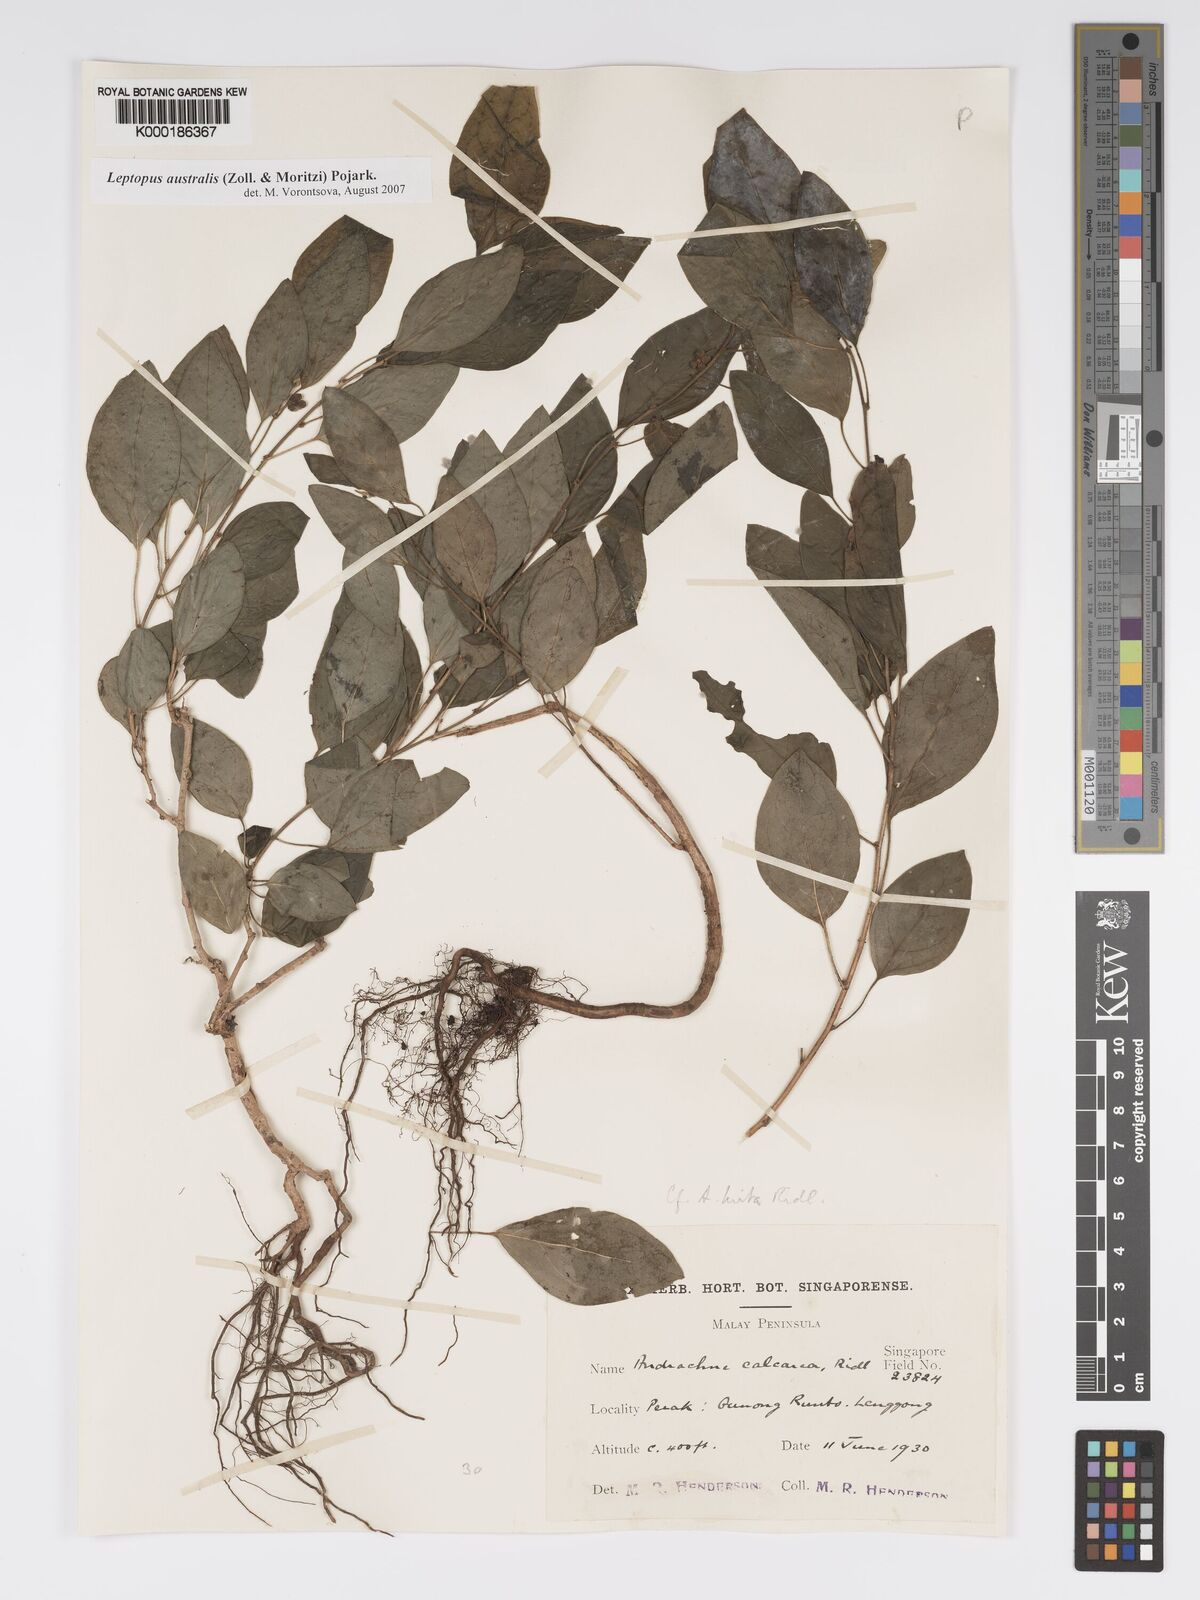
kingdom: Plantae
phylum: Tracheophyta
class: Magnoliopsida
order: Malpighiales
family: Phyllanthaceae
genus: Leptopus
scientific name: Leptopus australis
